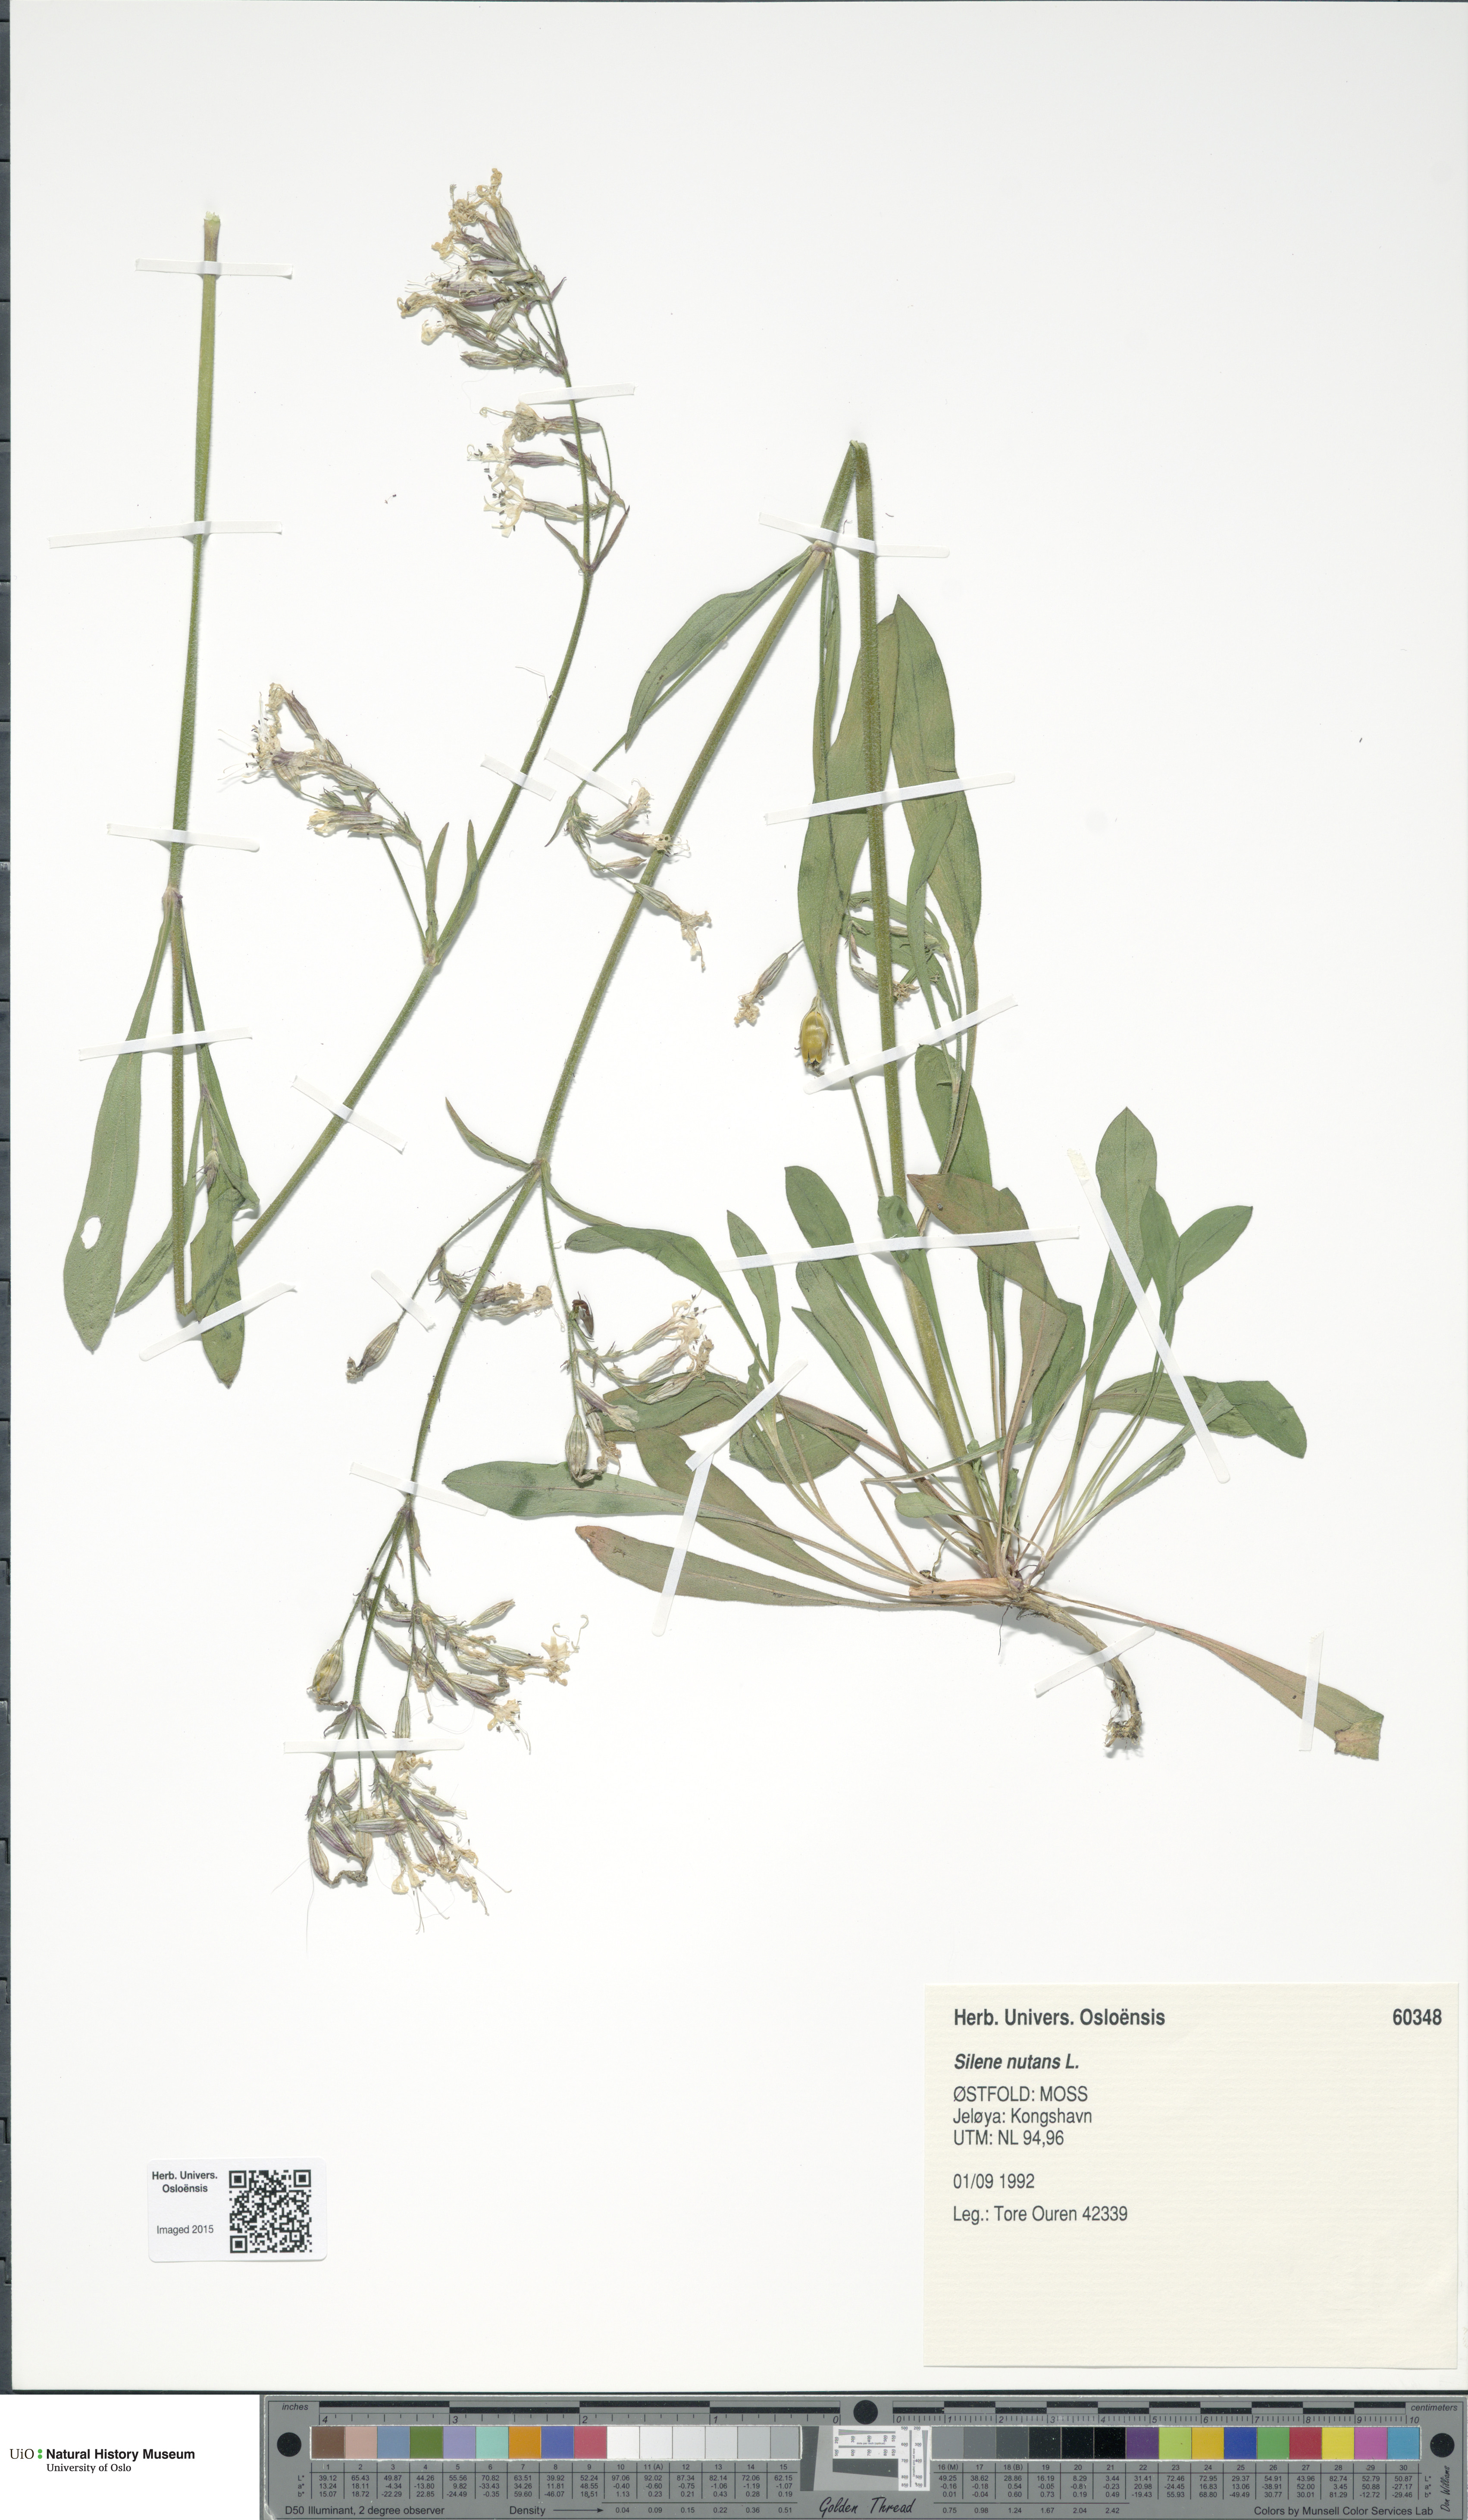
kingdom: Plantae
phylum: Tracheophyta
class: Magnoliopsida
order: Caryophyllales
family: Caryophyllaceae
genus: Silene
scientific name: Silene nutans
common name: Nottingham catchfly
